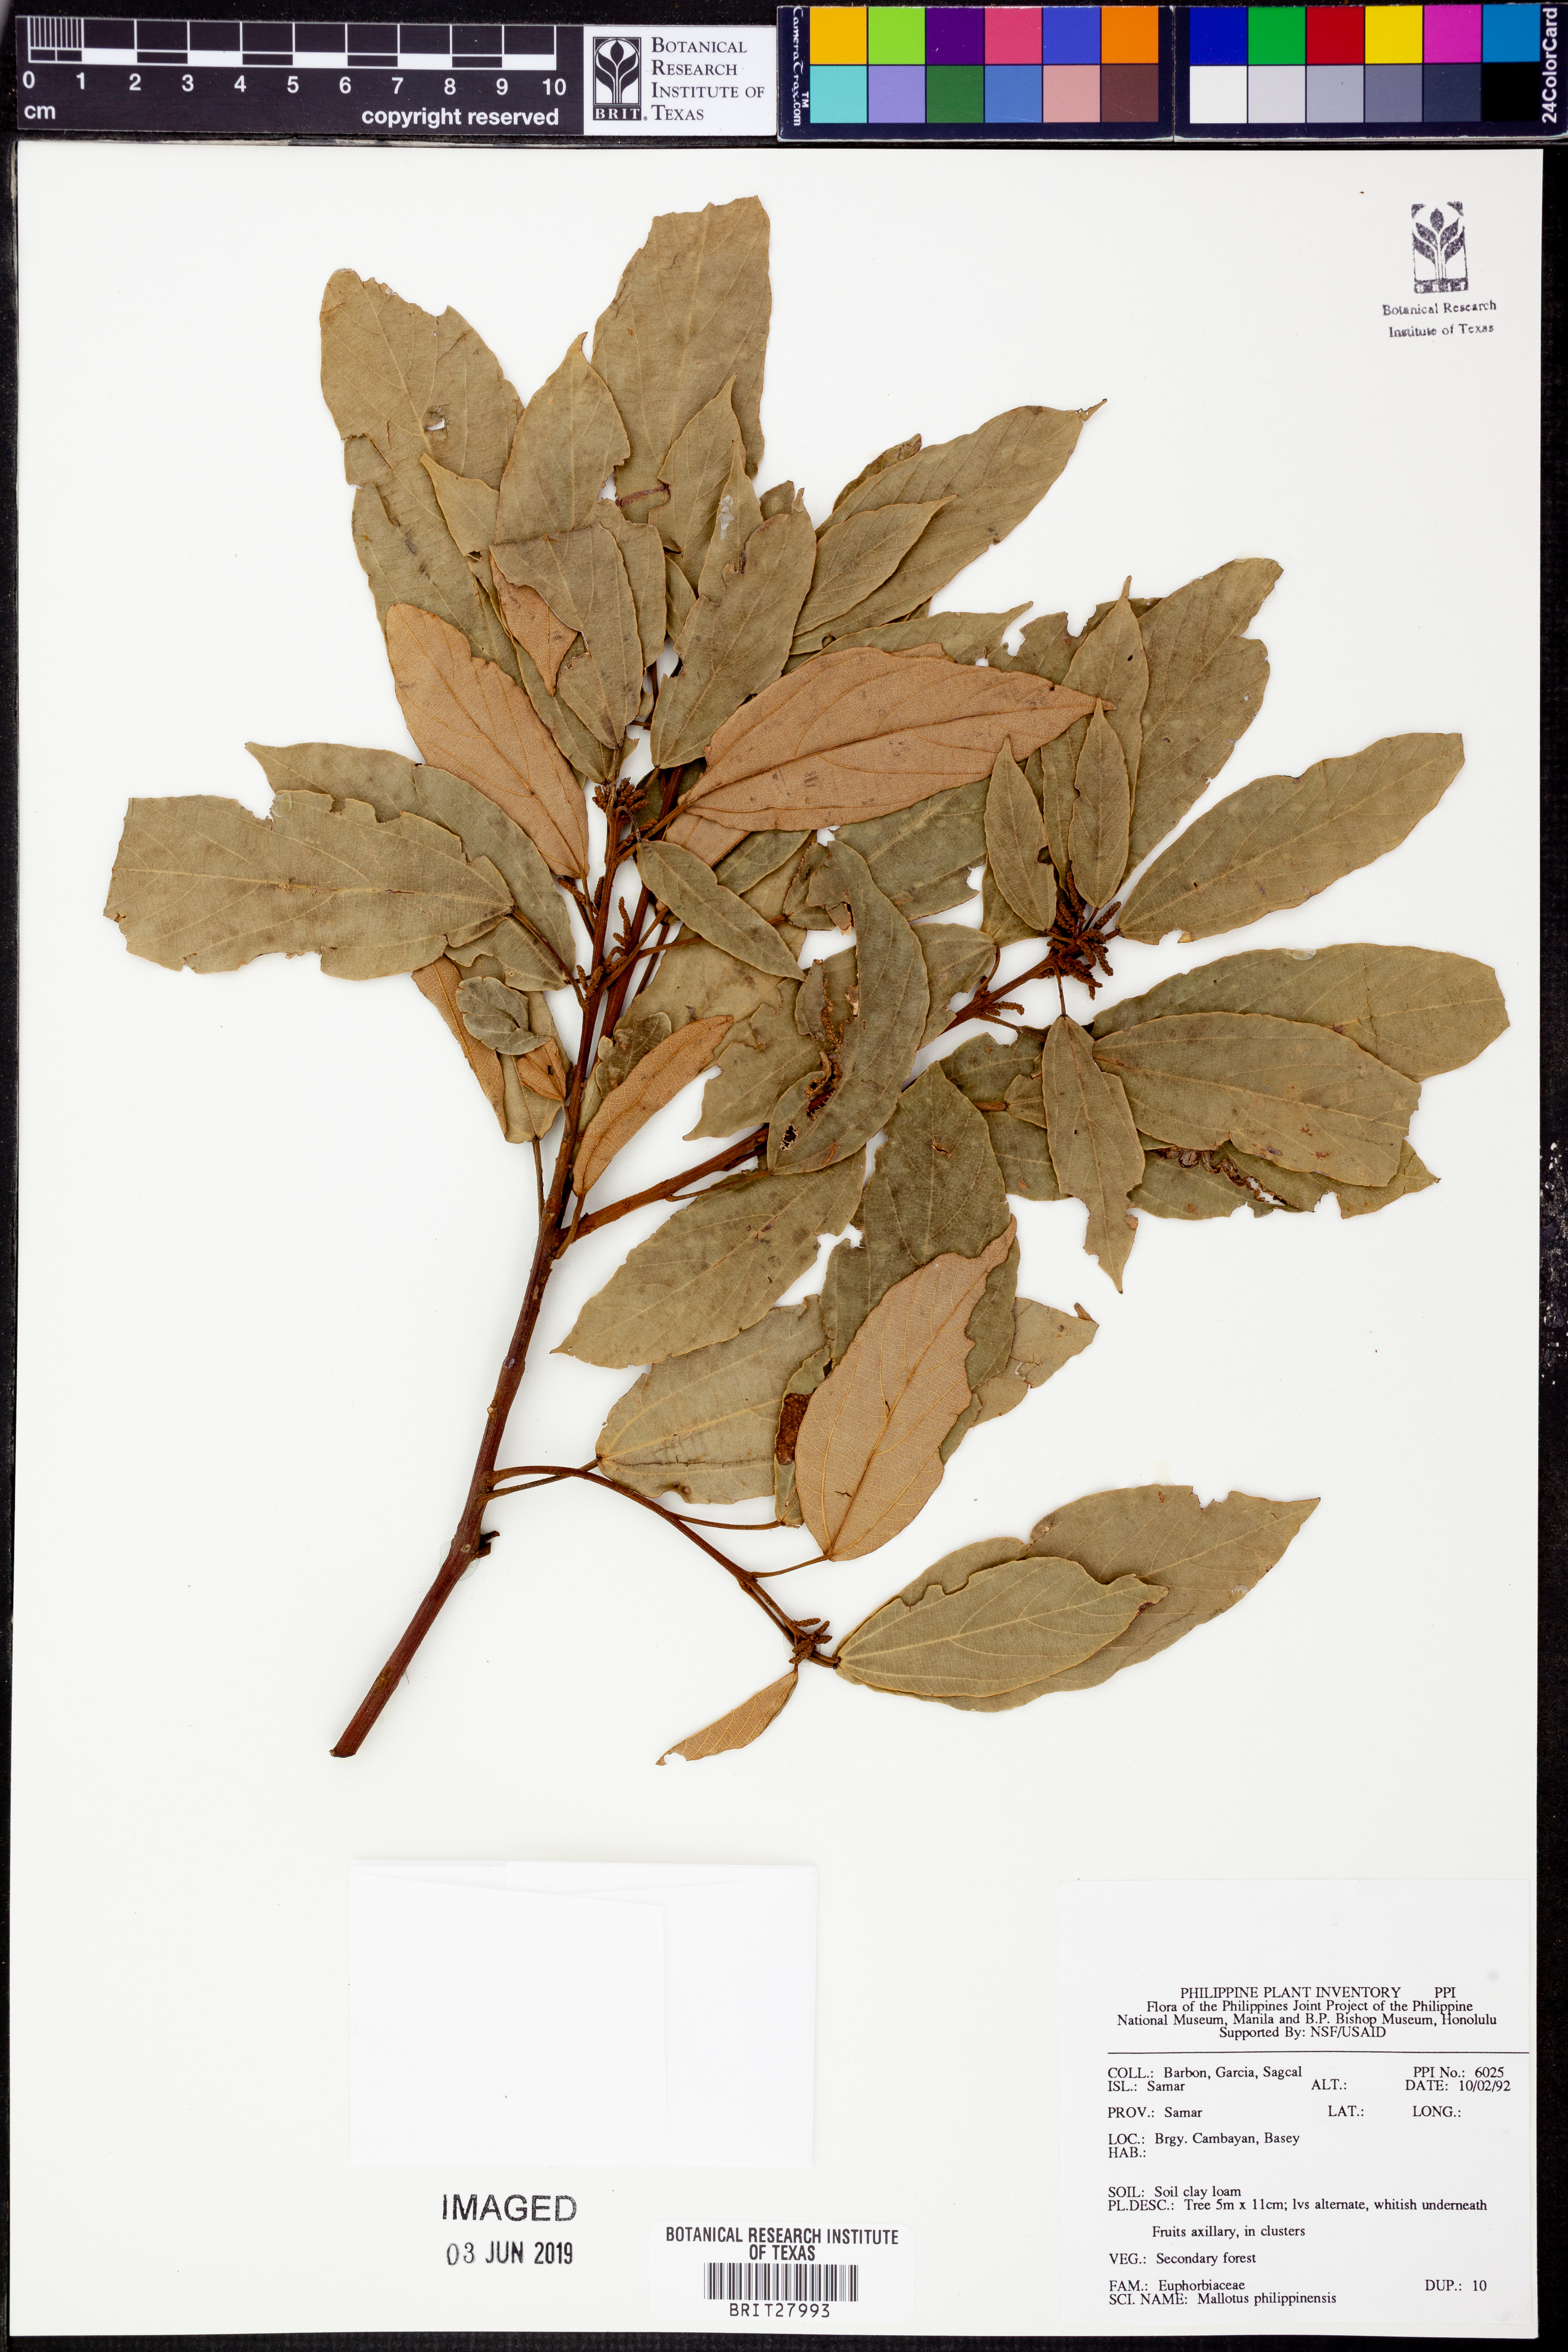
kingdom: Plantae
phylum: Tracheophyta
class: Magnoliopsida
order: Malpighiales
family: Euphorbiaceae
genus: Mallotus
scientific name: Mallotus philippensis
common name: Kamala tree
